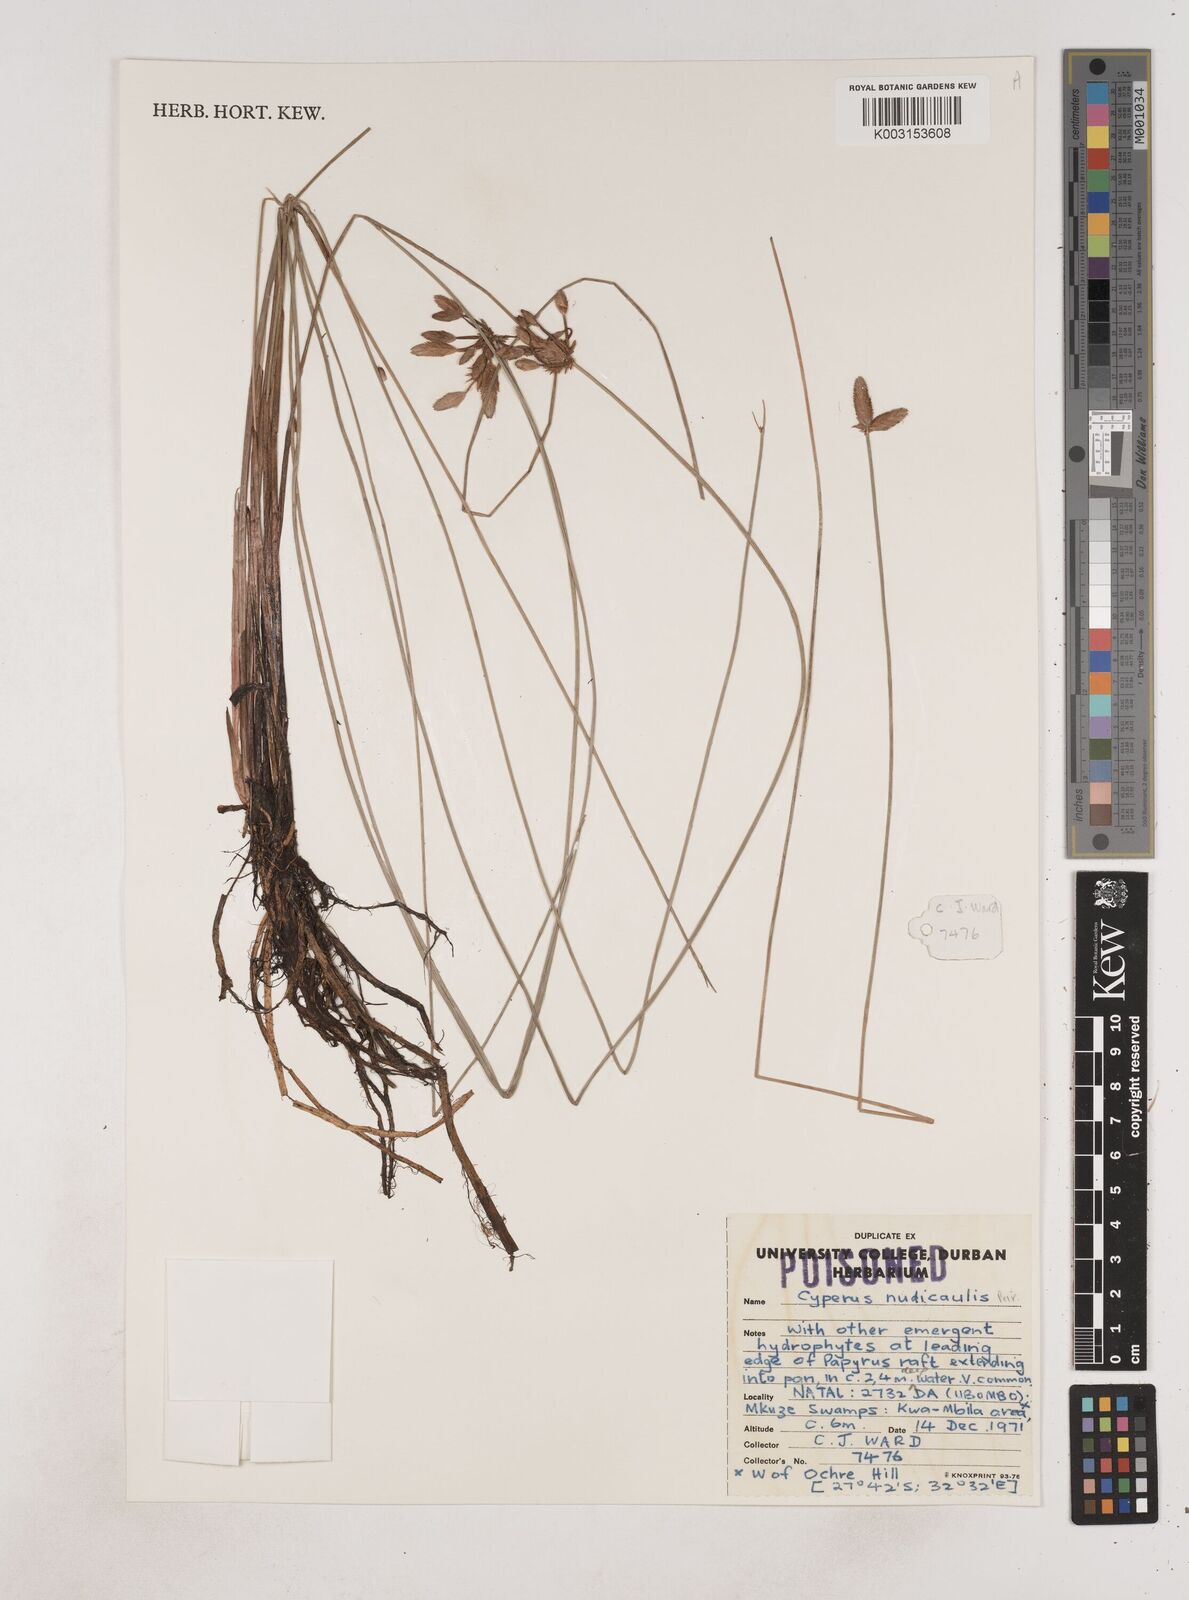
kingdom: Plantae
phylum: Tracheophyta
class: Liliopsida
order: Poales
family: Cyperaceae
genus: Cyperus
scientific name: Cyperus pectinatus
